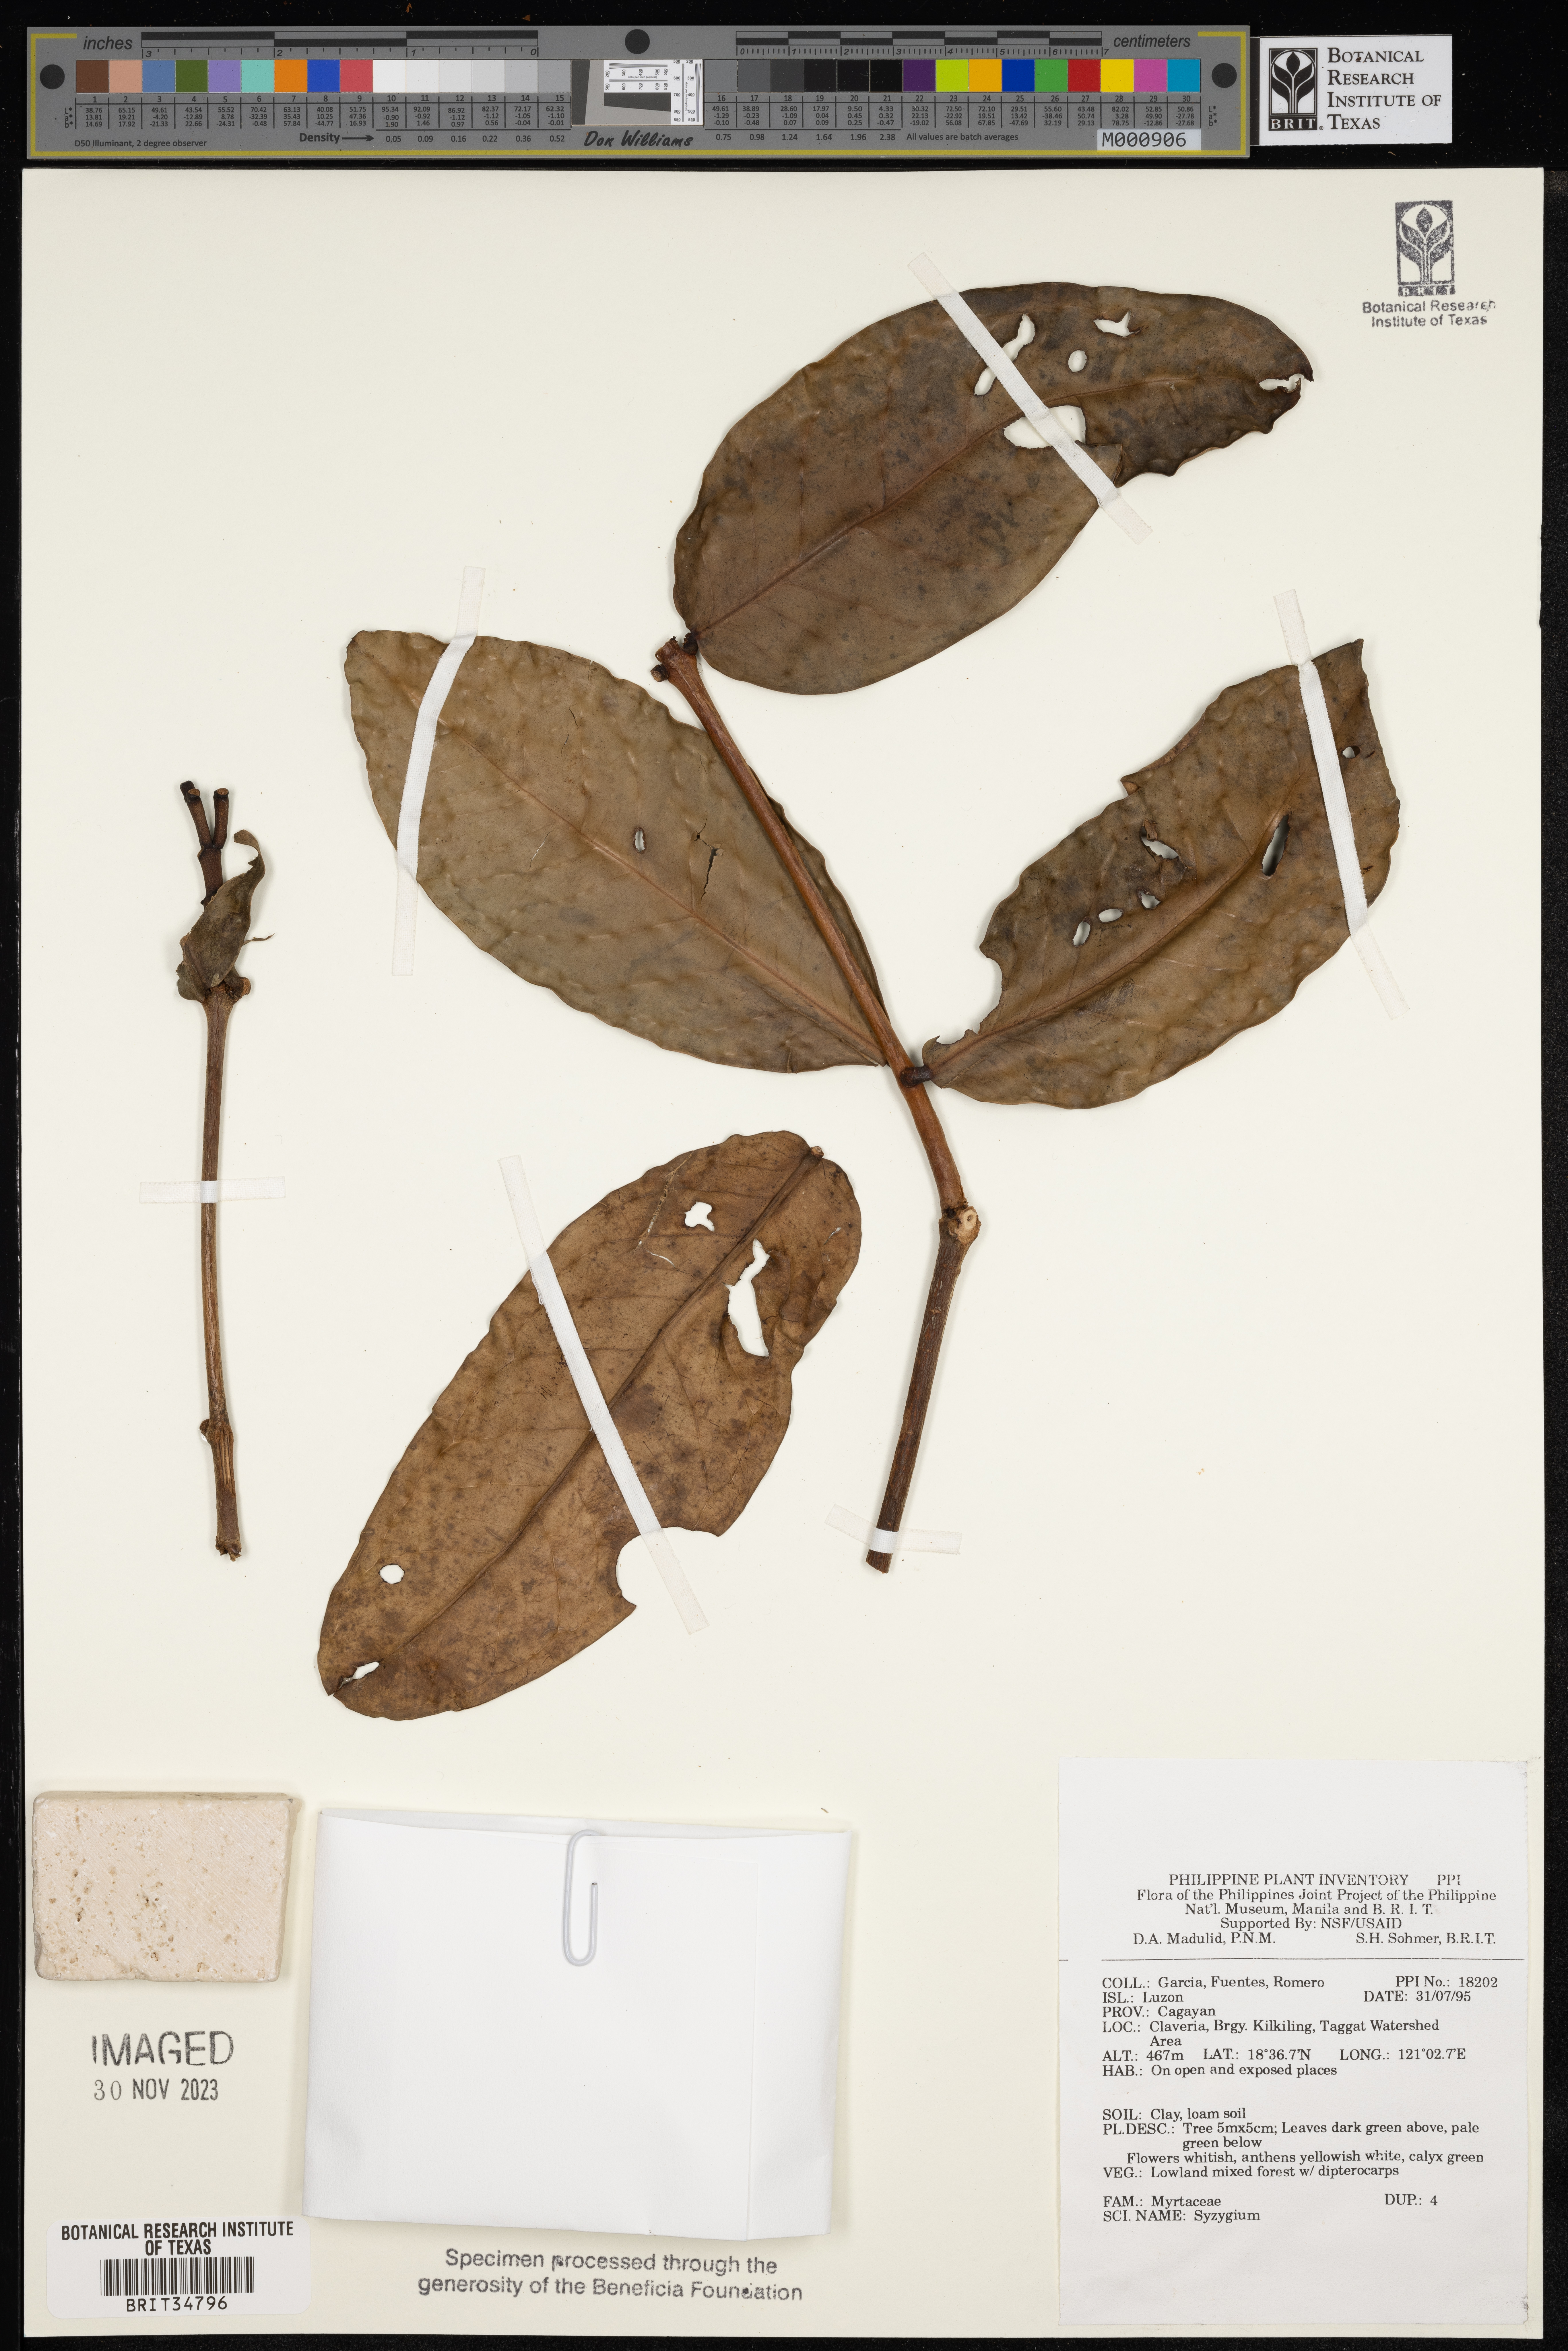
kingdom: Plantae
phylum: Tracheophyta
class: Magnoliopsida
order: Myrtales
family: Myrtaceae
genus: Syzygium
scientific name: Syzygium
